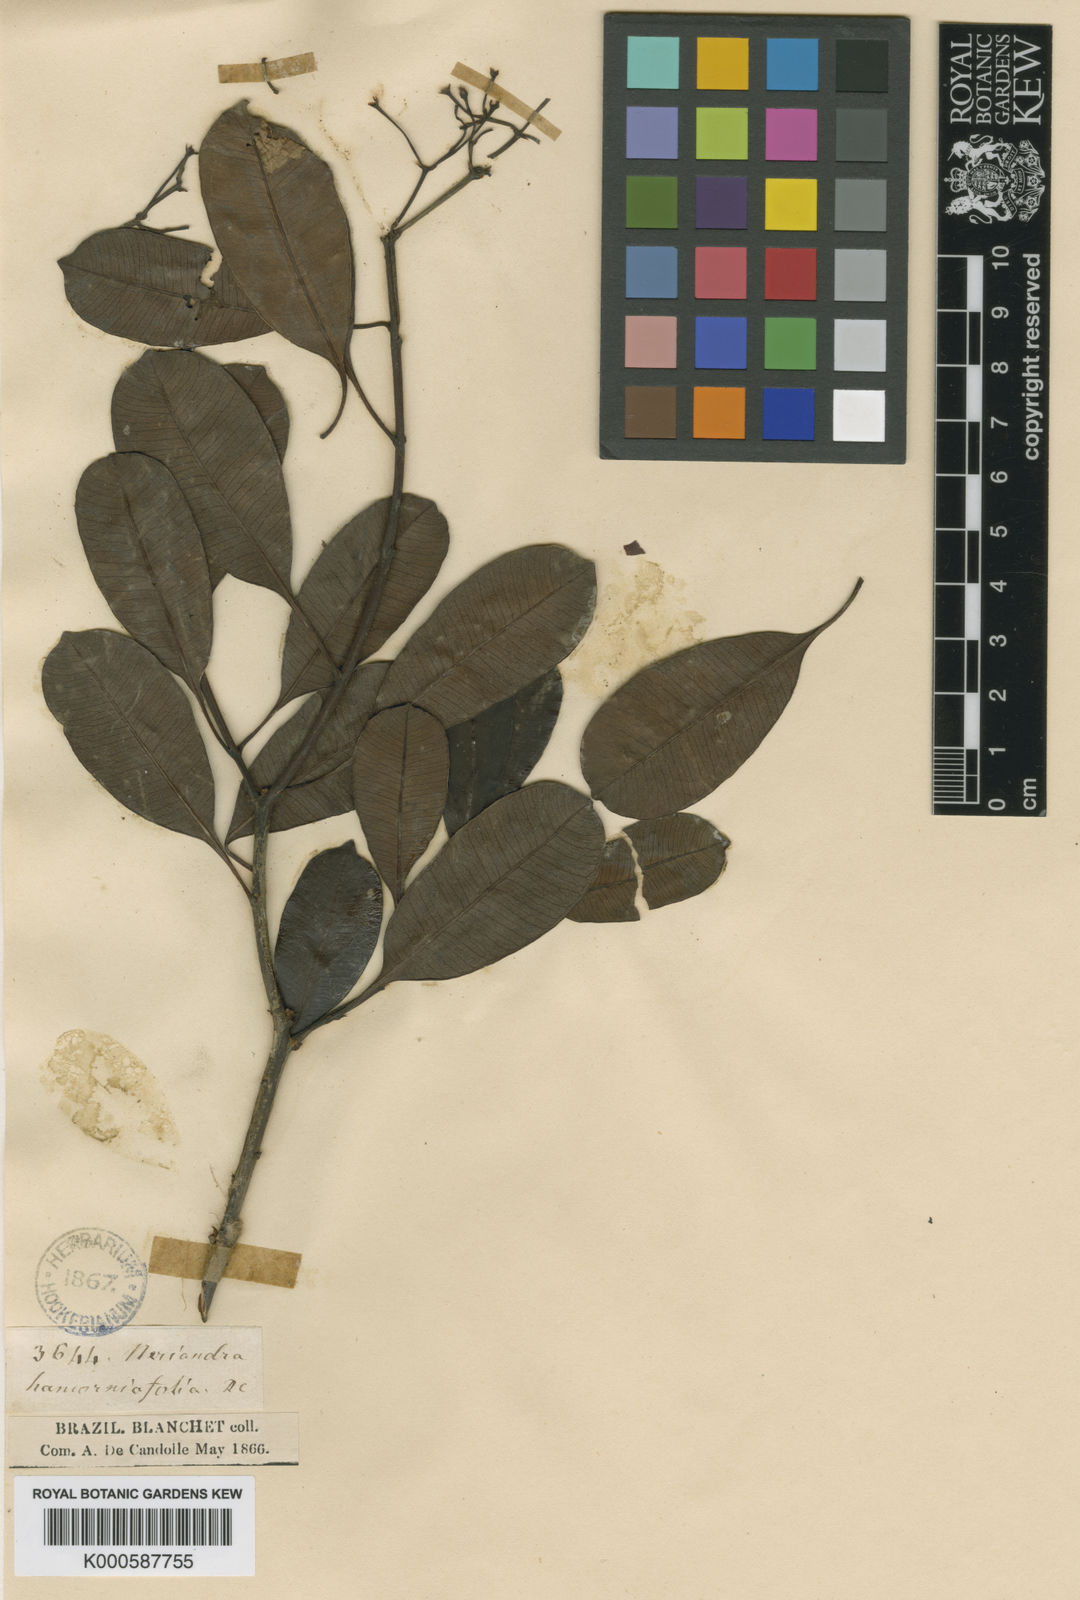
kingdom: Plantae
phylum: Tracheophyta
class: Magnoliopsida
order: Gentianales
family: Apocynaceae
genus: Skytanthus
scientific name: Skytanthus hancorniifolius
